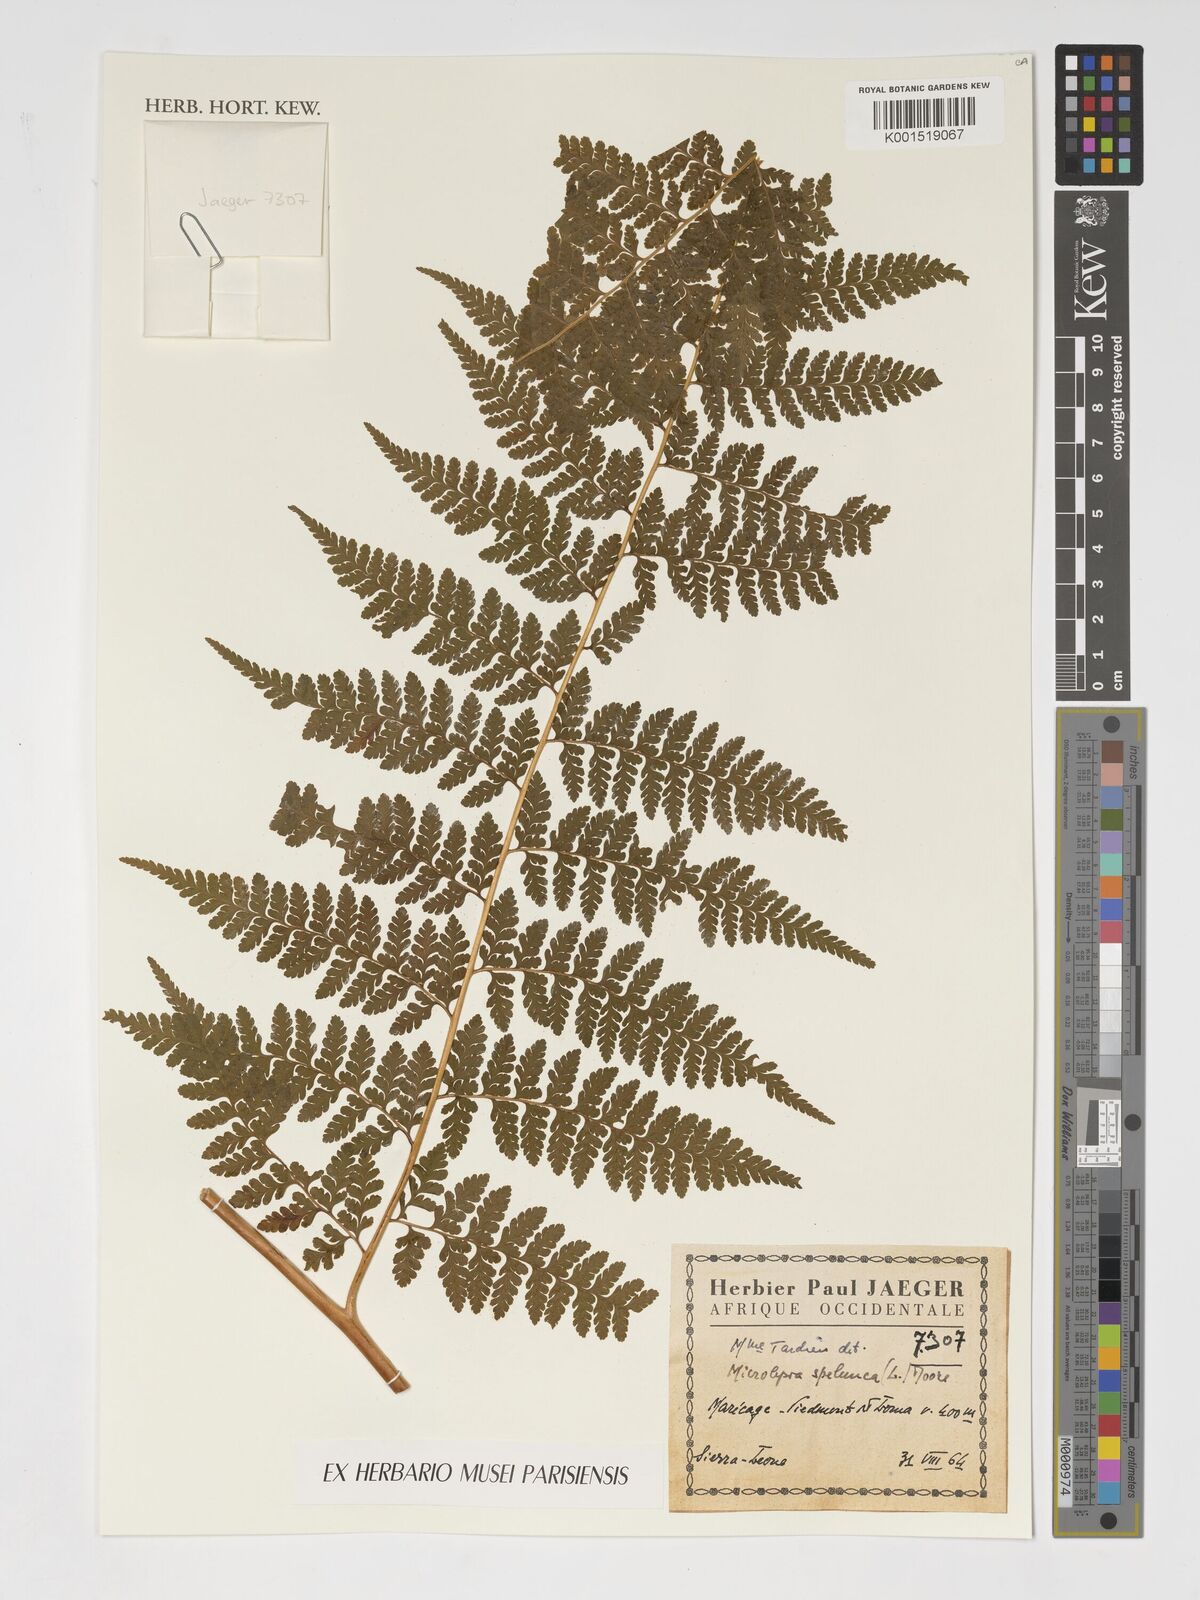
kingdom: Plantae
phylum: Tracheophyta
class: Polypodiopsida
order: Polypodiales
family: Dennstaedtiaceae
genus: Microlepia
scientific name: Microlepia speluncae
